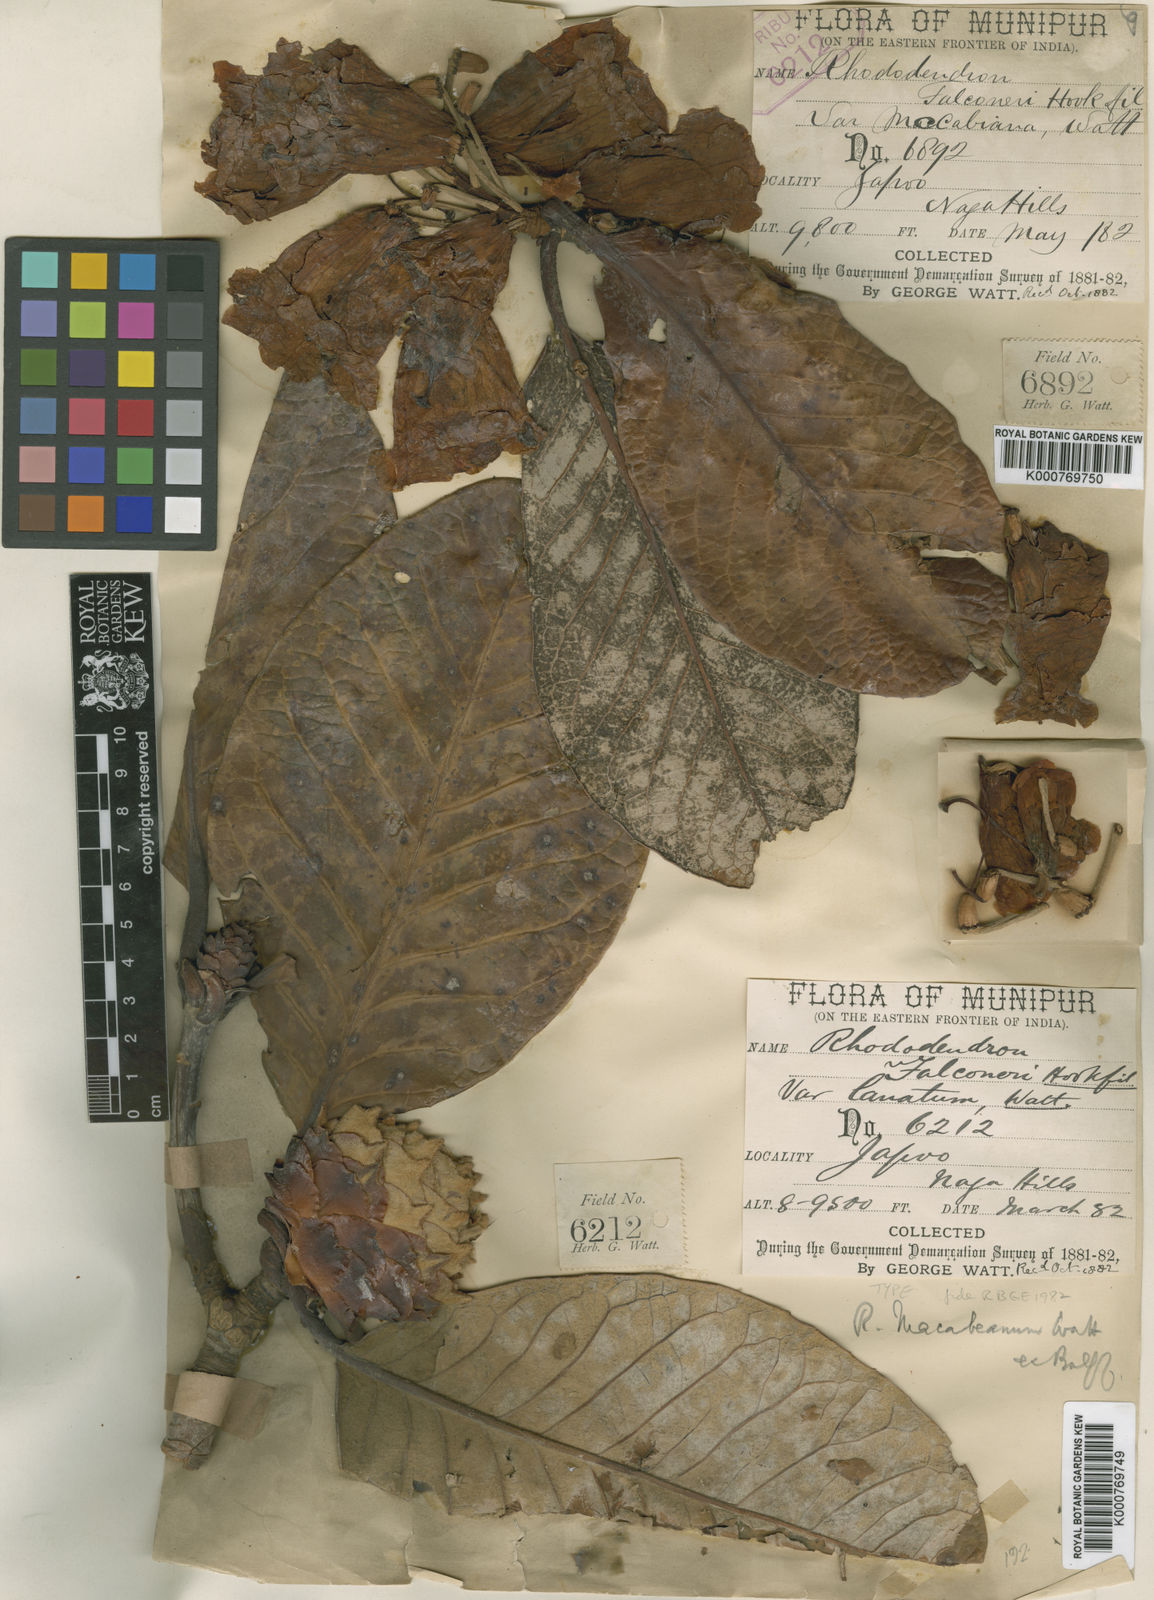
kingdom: Plantae
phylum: Tracheophyta
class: Magnoliopsida
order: Ericales
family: Ericaceae
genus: Rhododendron
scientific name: Rhododendron macabeanum
